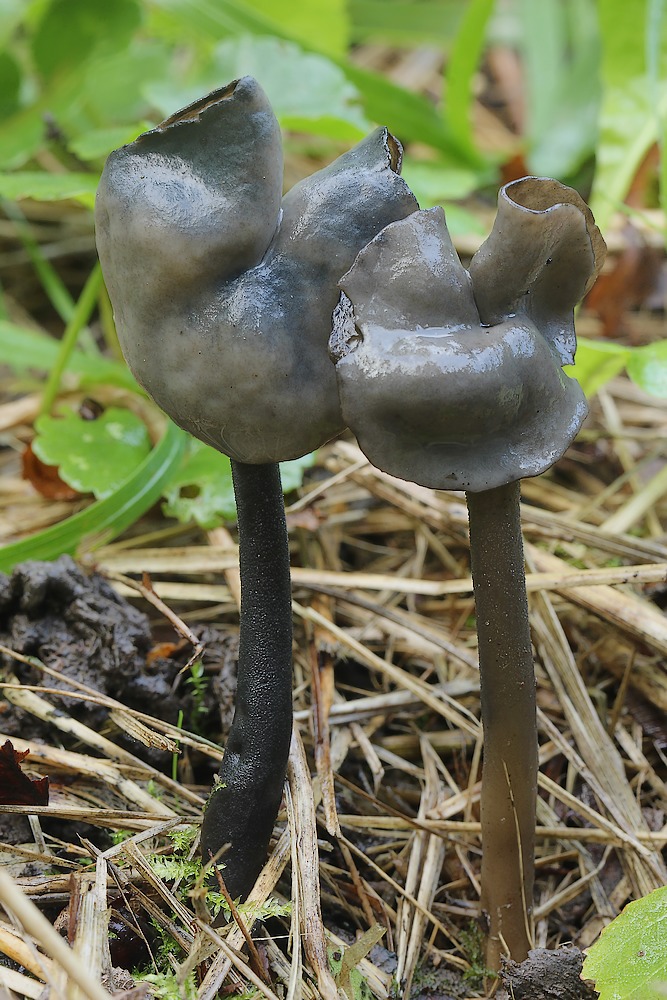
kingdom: Fungi
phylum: Ascomycota
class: Pezizomycetes
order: Pezizales
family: Helvellaceae
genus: Helvella
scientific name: Helvella atra
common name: sort foldhat
